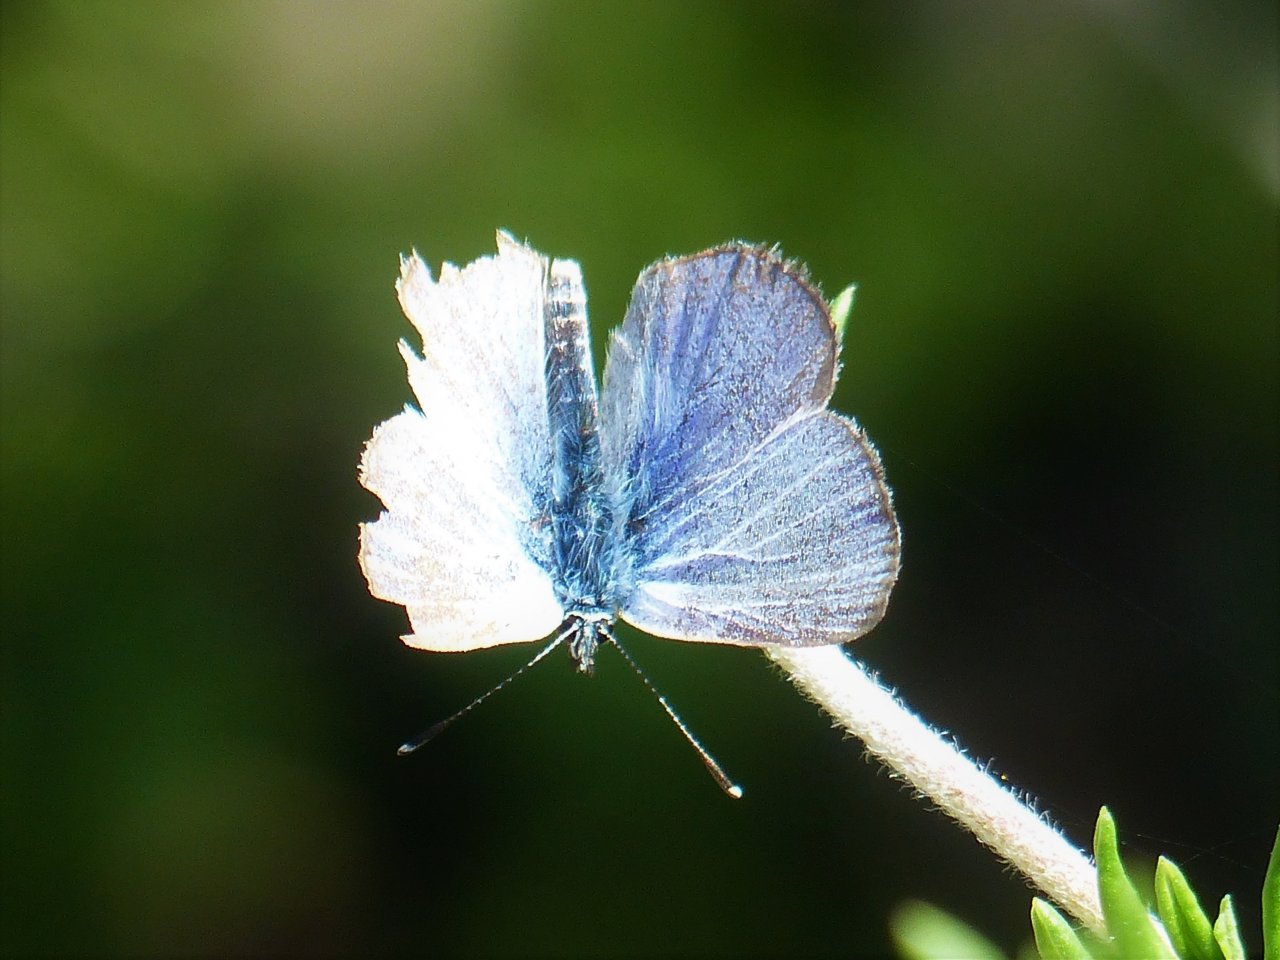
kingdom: Animalia
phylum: Arthropoda
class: Insecta
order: Lepidoptera
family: Lycaenidae
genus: Glaucopsyche
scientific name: Glaucopsyche lygdamus
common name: Silvery Blue
